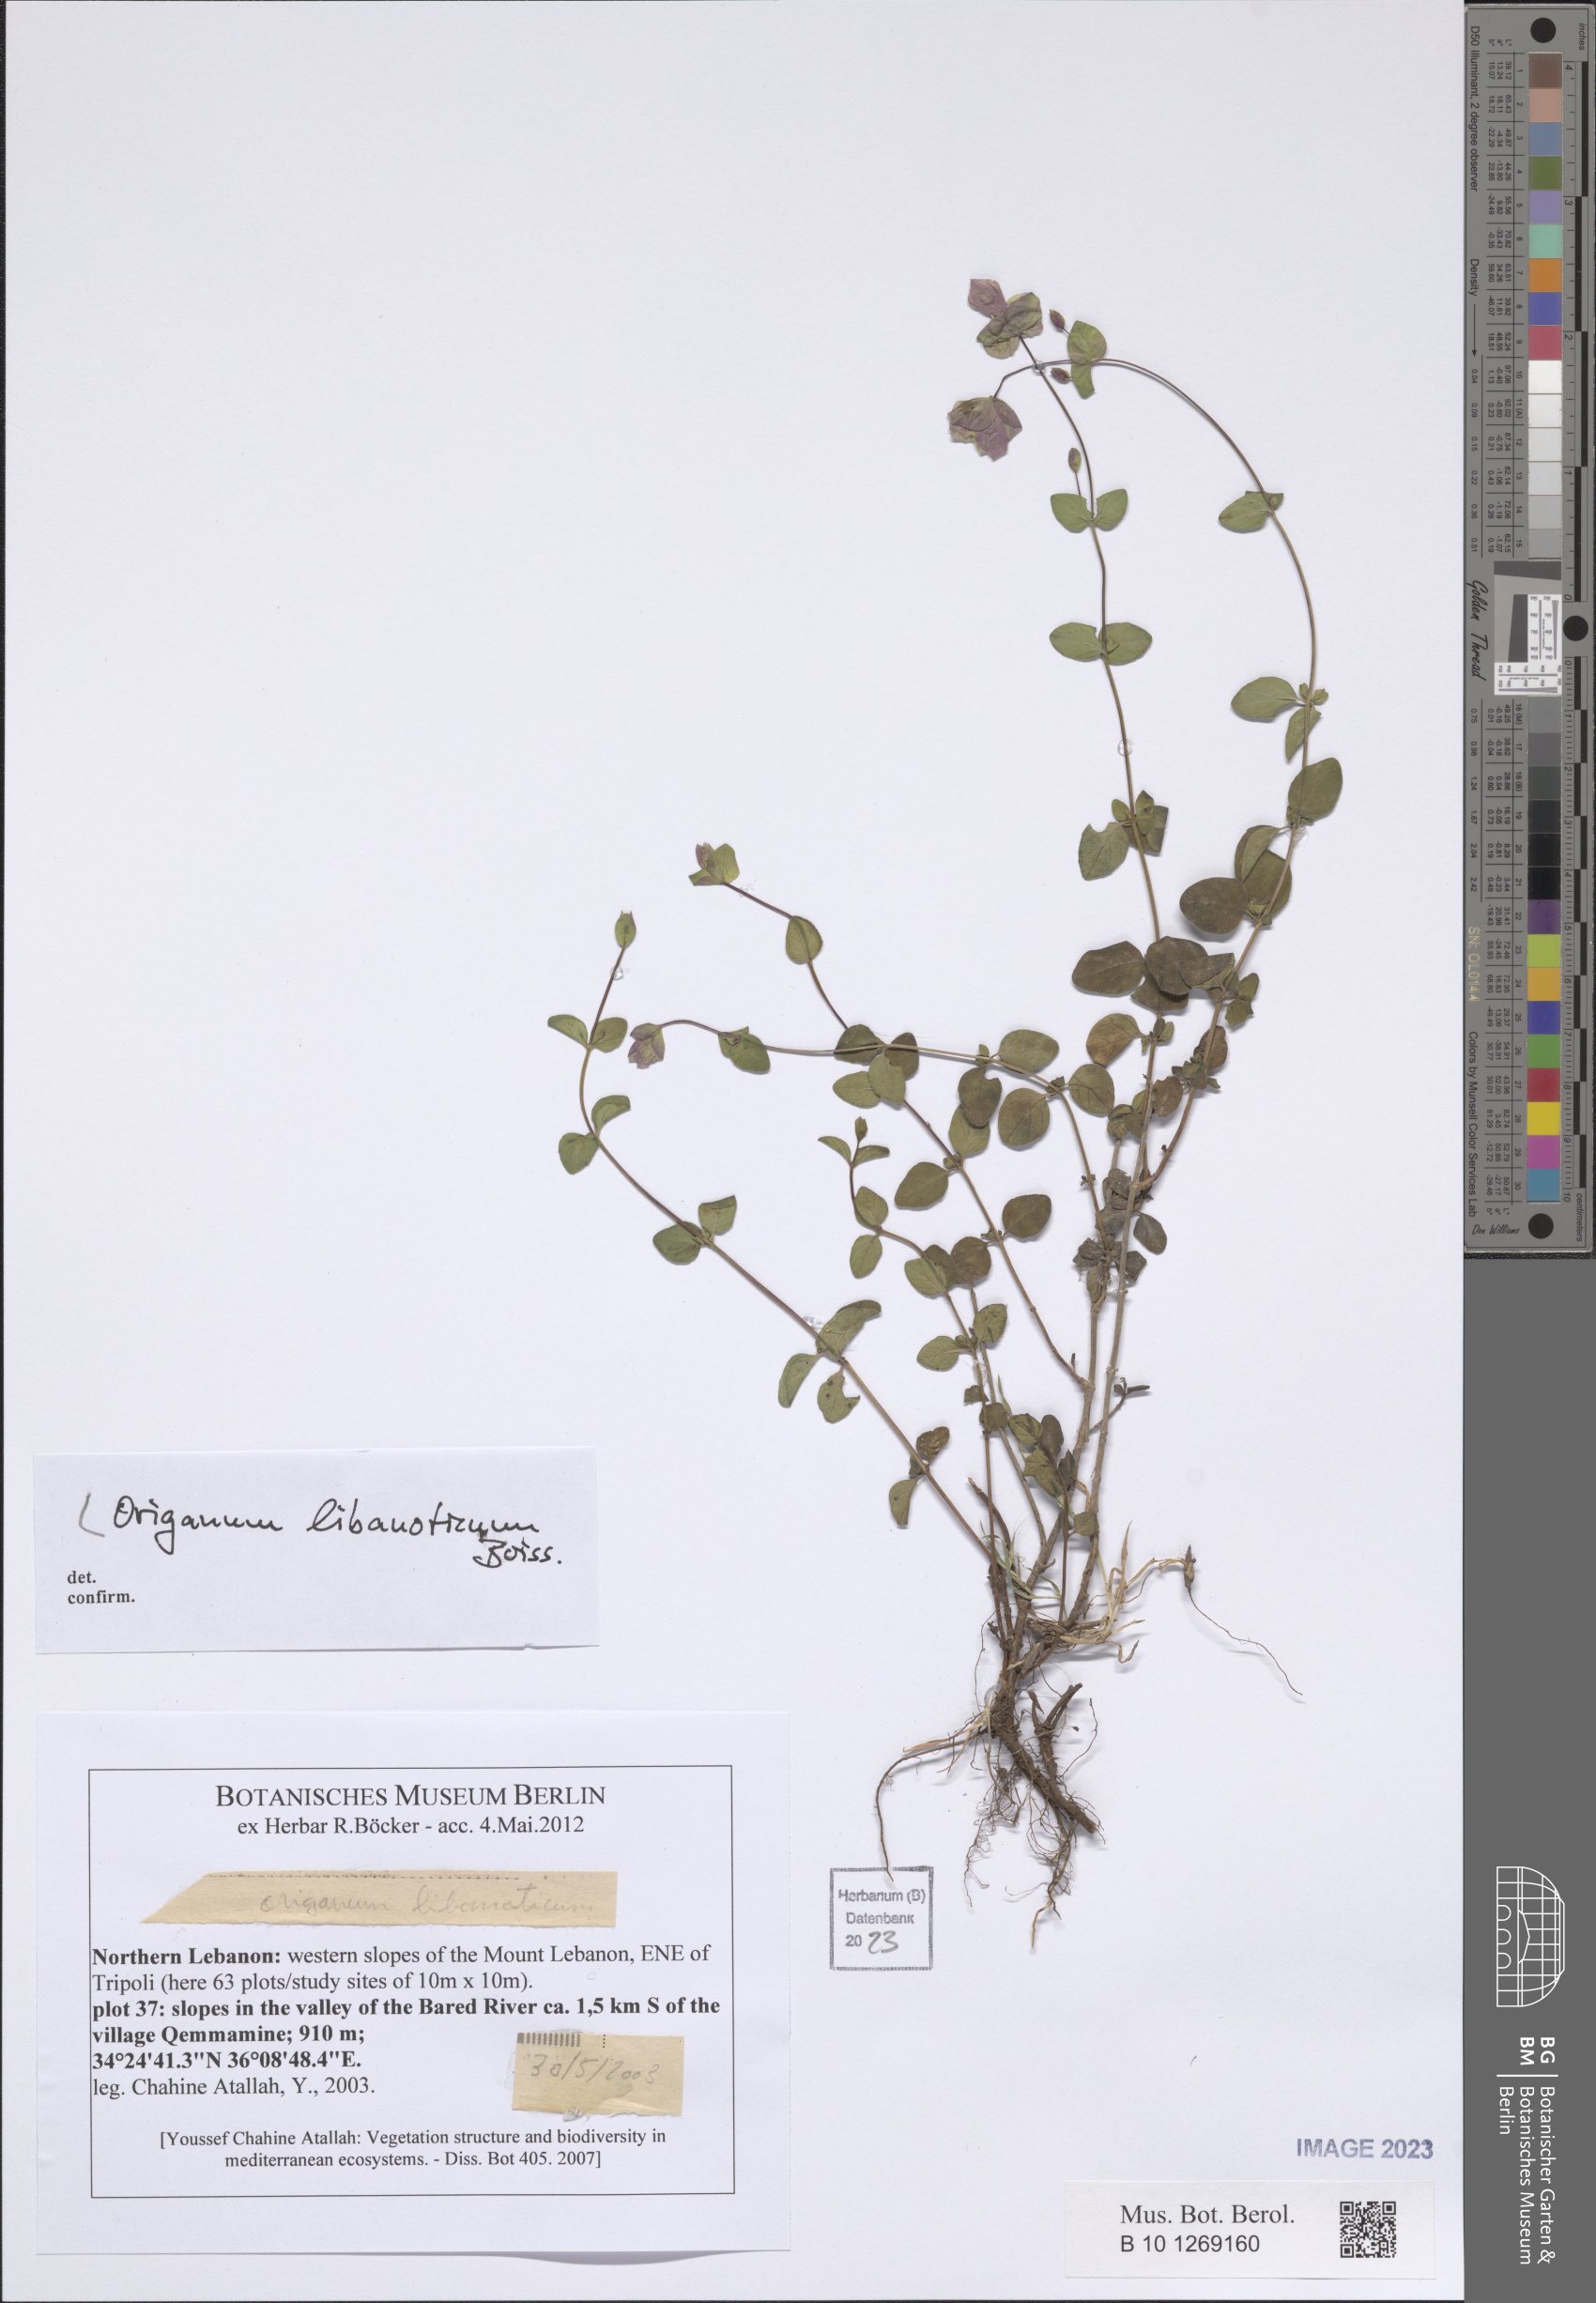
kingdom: Plantae
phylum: Tracheophyta
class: Magnoliopsida
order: Lamiales
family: Lamiaceae
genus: Origanum
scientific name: Origanum libanoticum
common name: Lebanon oregano
